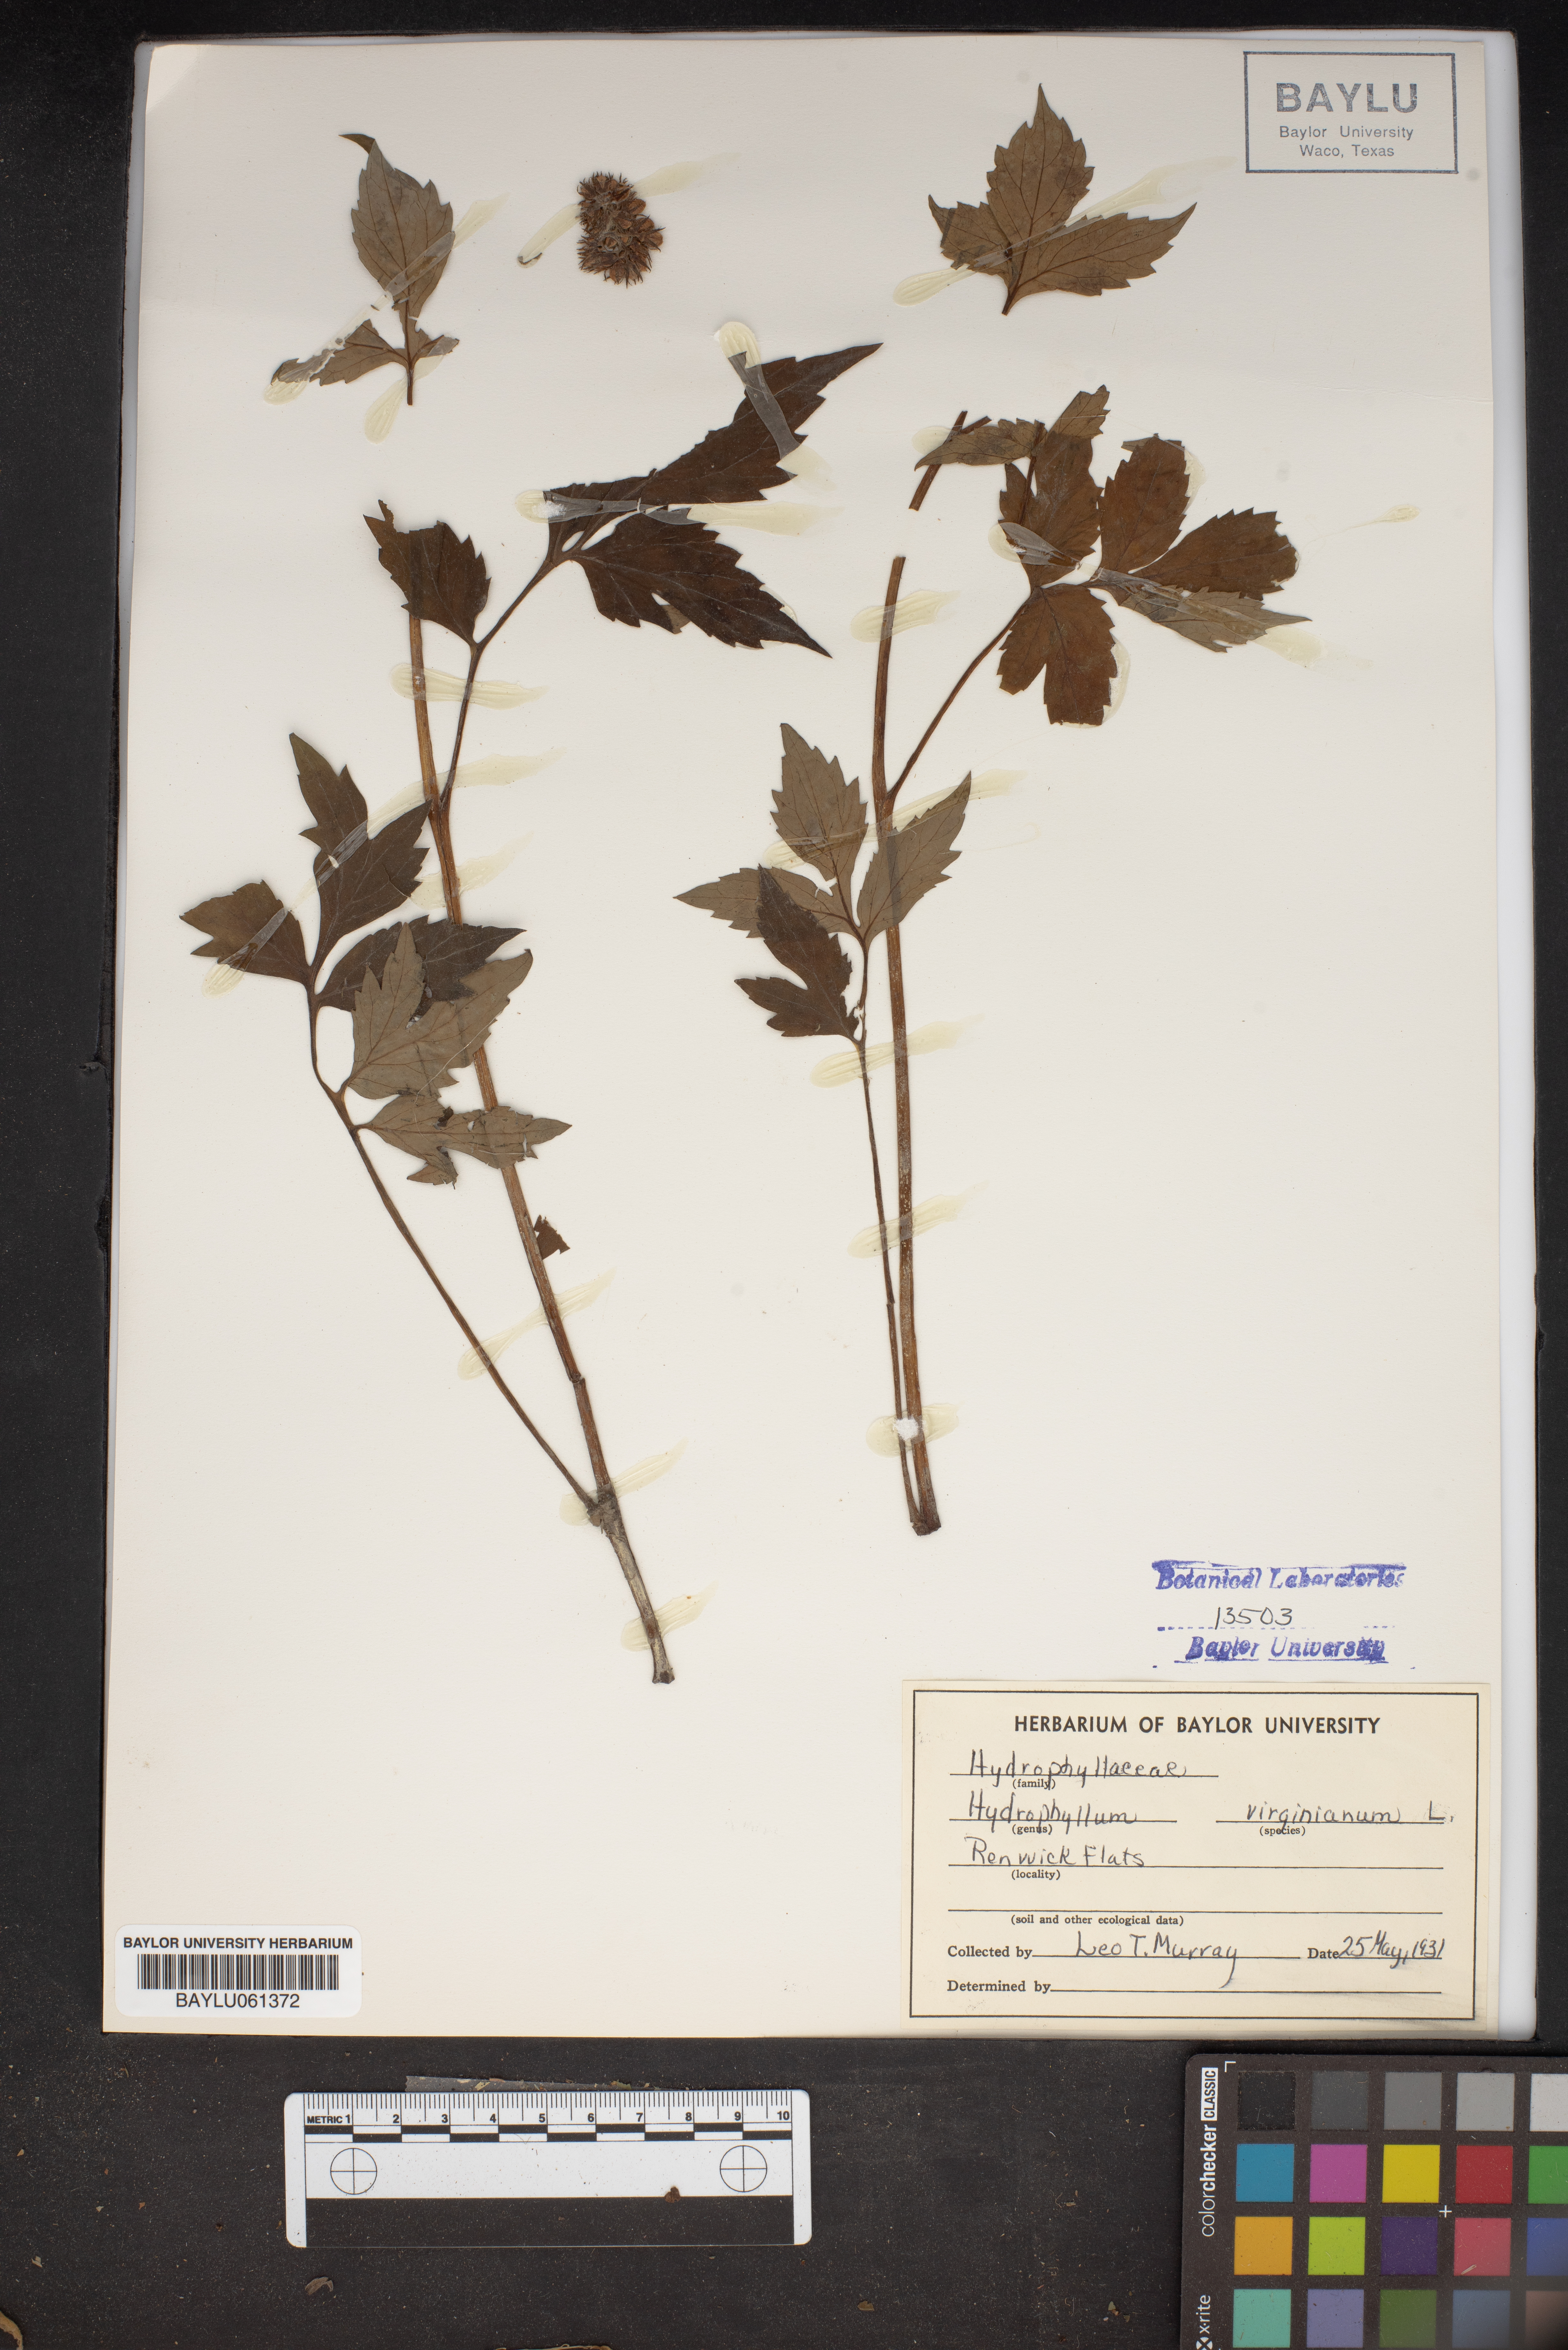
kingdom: Plantae
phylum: Tracheophyta
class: Magnoliopsida
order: Boraginales
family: Hydrophyllaceae
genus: Hydrophyllum
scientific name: Hydrophyllum virginianum
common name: Virginia waterleaf
